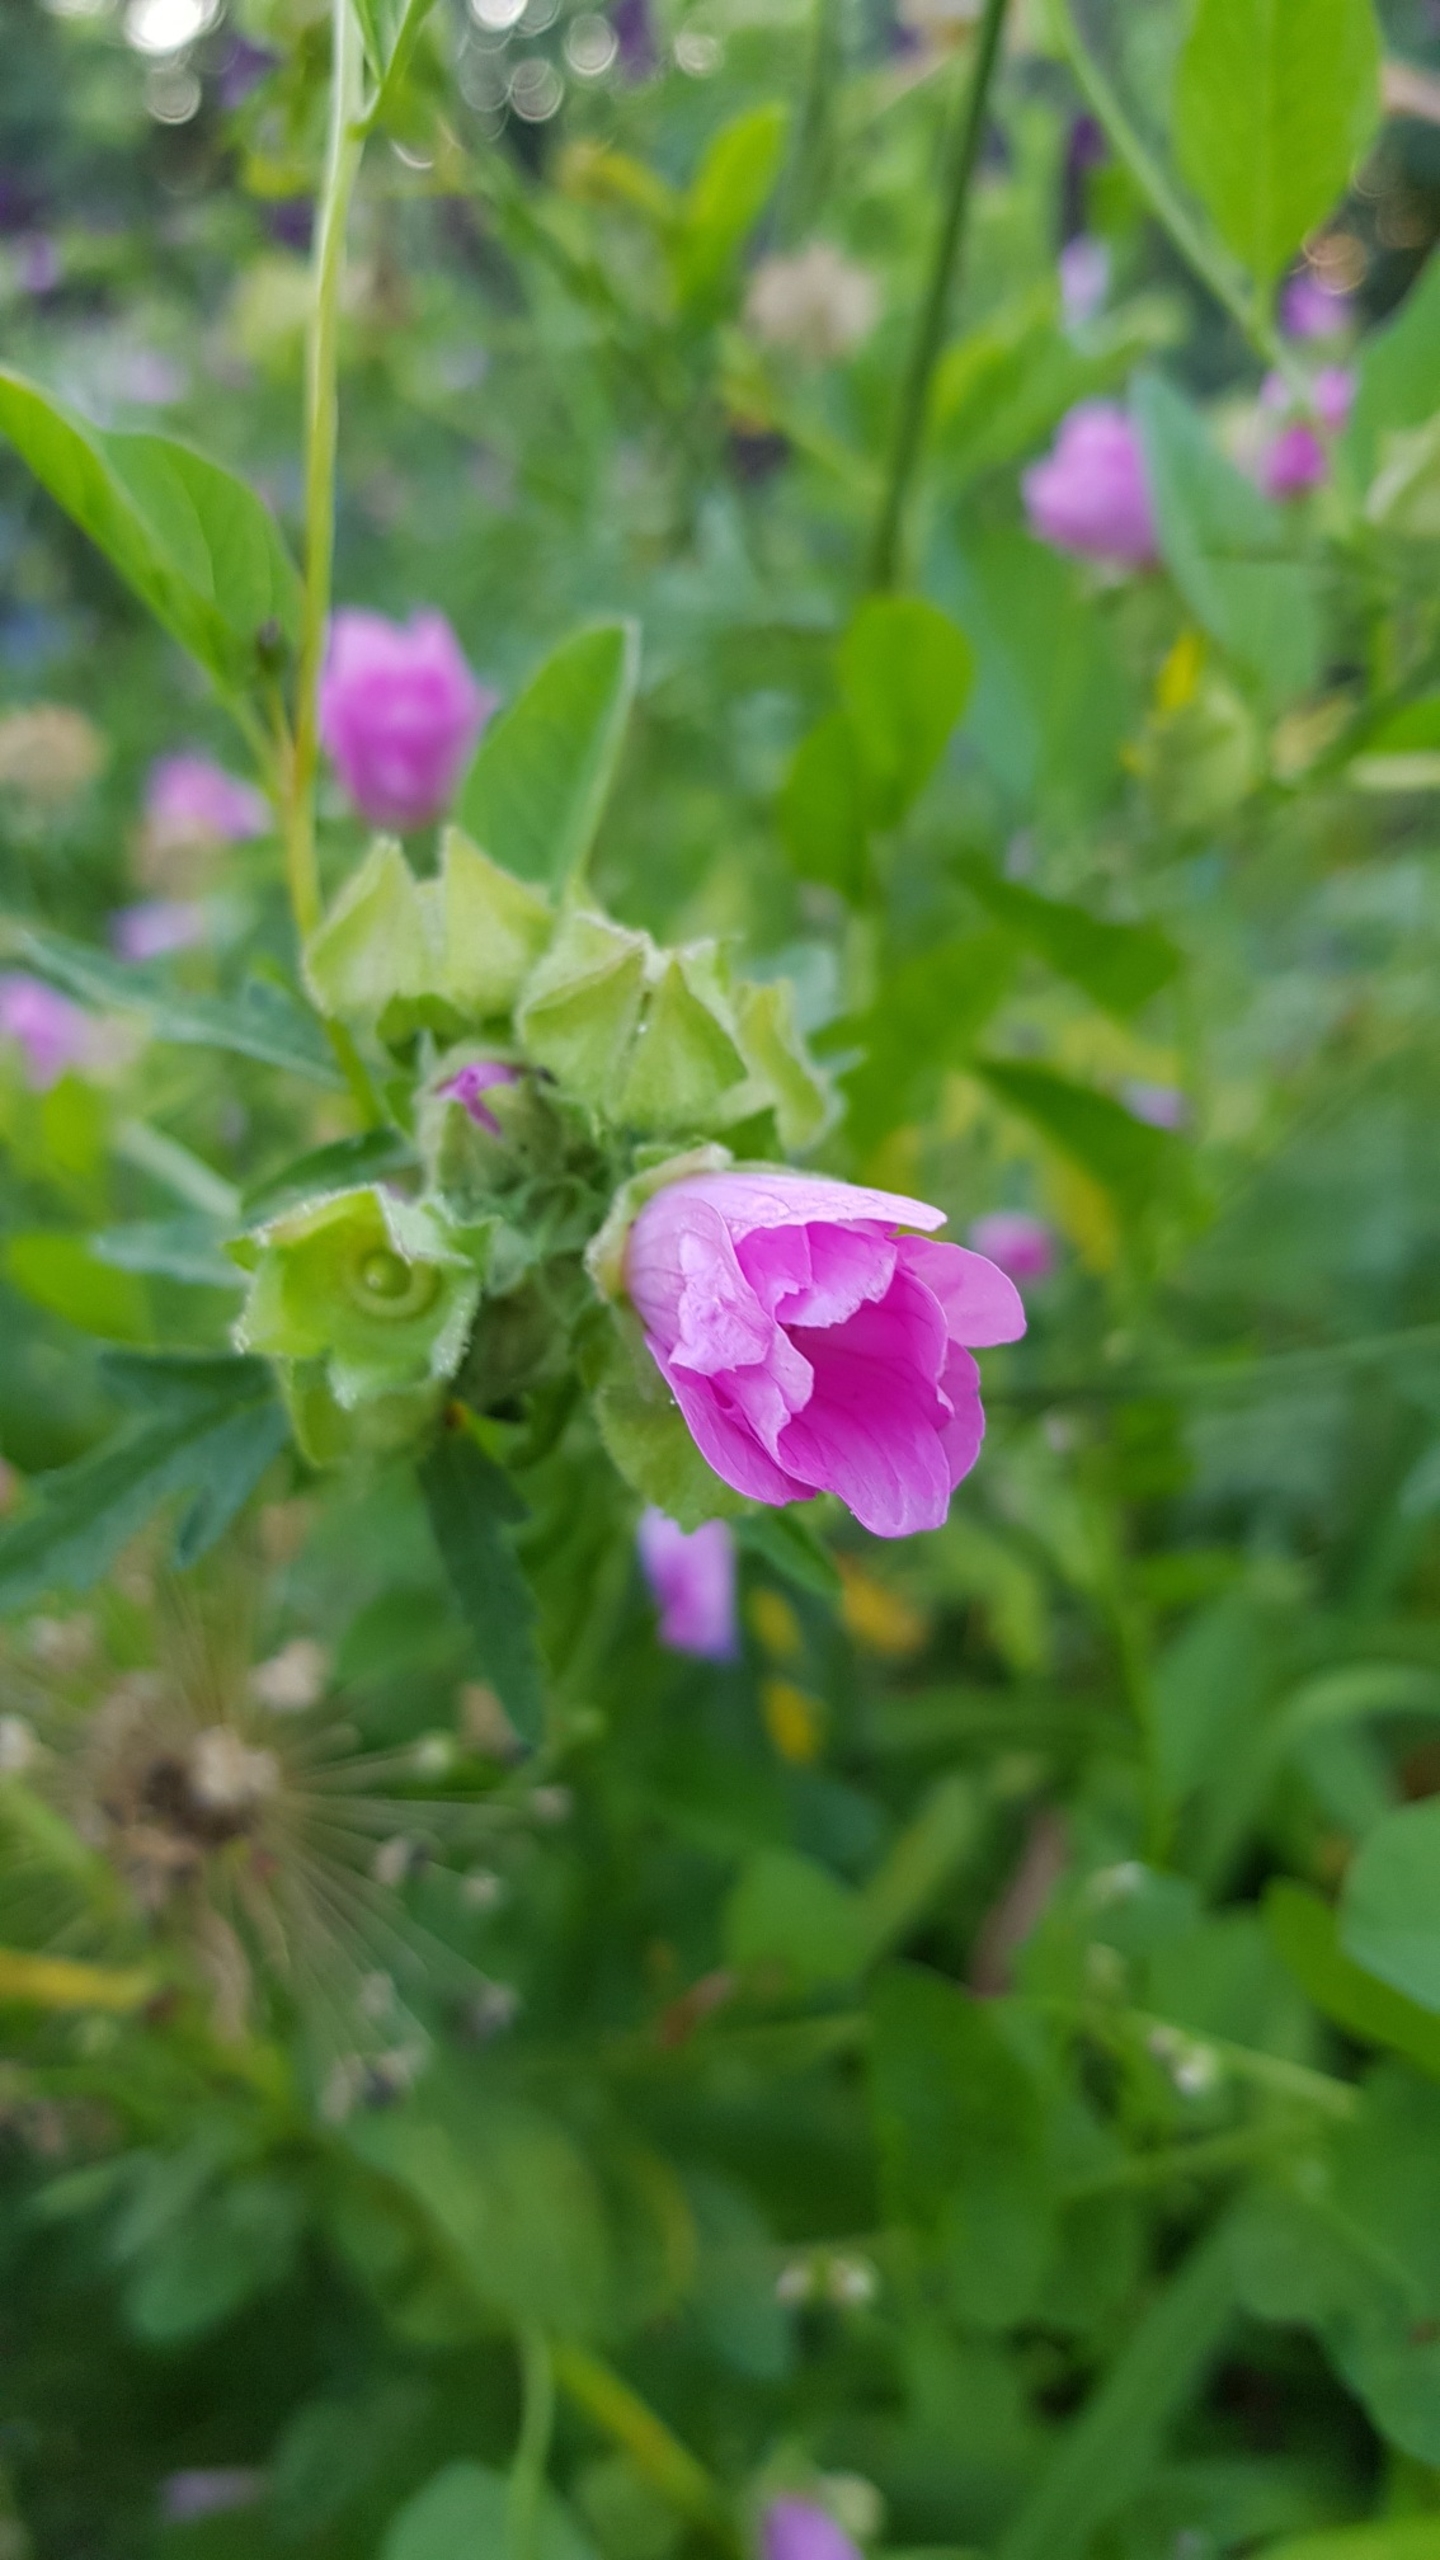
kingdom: Plantae
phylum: Tracheophyta
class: Magnoliopsida
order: Malvales
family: Malvaceae
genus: Malva
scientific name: Malva moschata
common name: Moskus-katost
